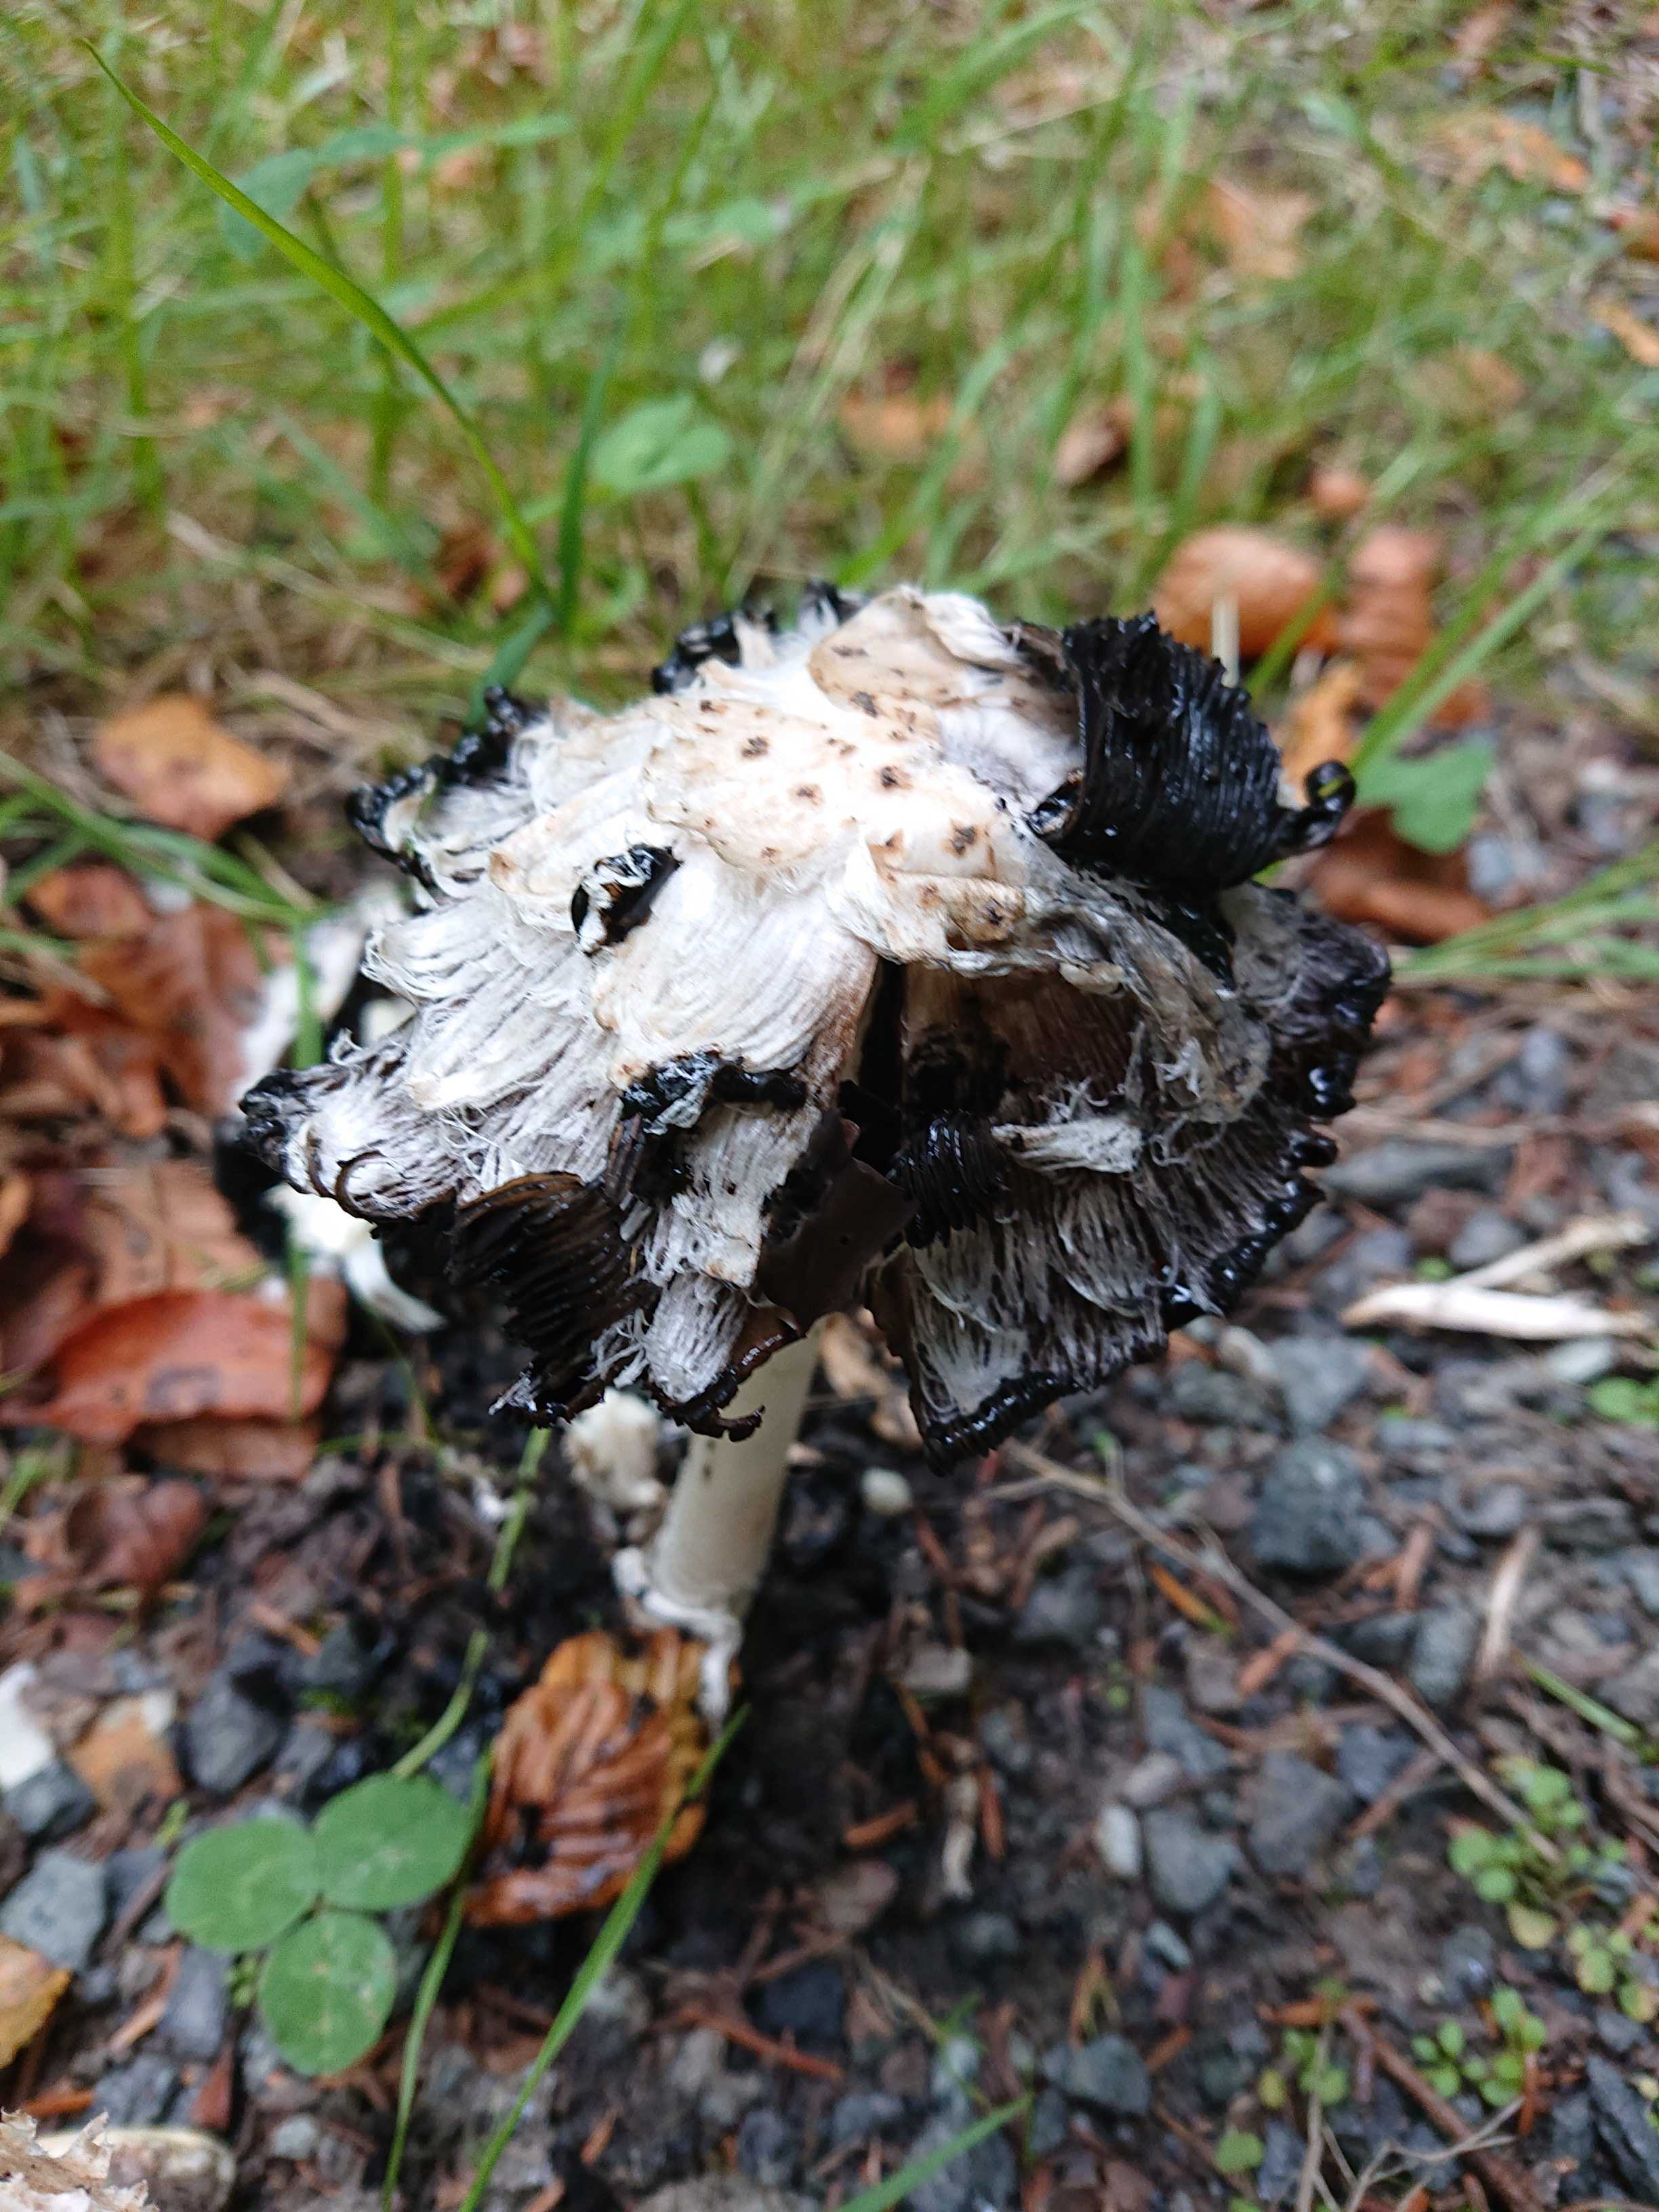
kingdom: Fungi
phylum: Basidiomycota
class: Agaricomycetes
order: Agaricales
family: Agaricaceae
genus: Coprinus
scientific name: Coprinus comatus
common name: stor parykhat
